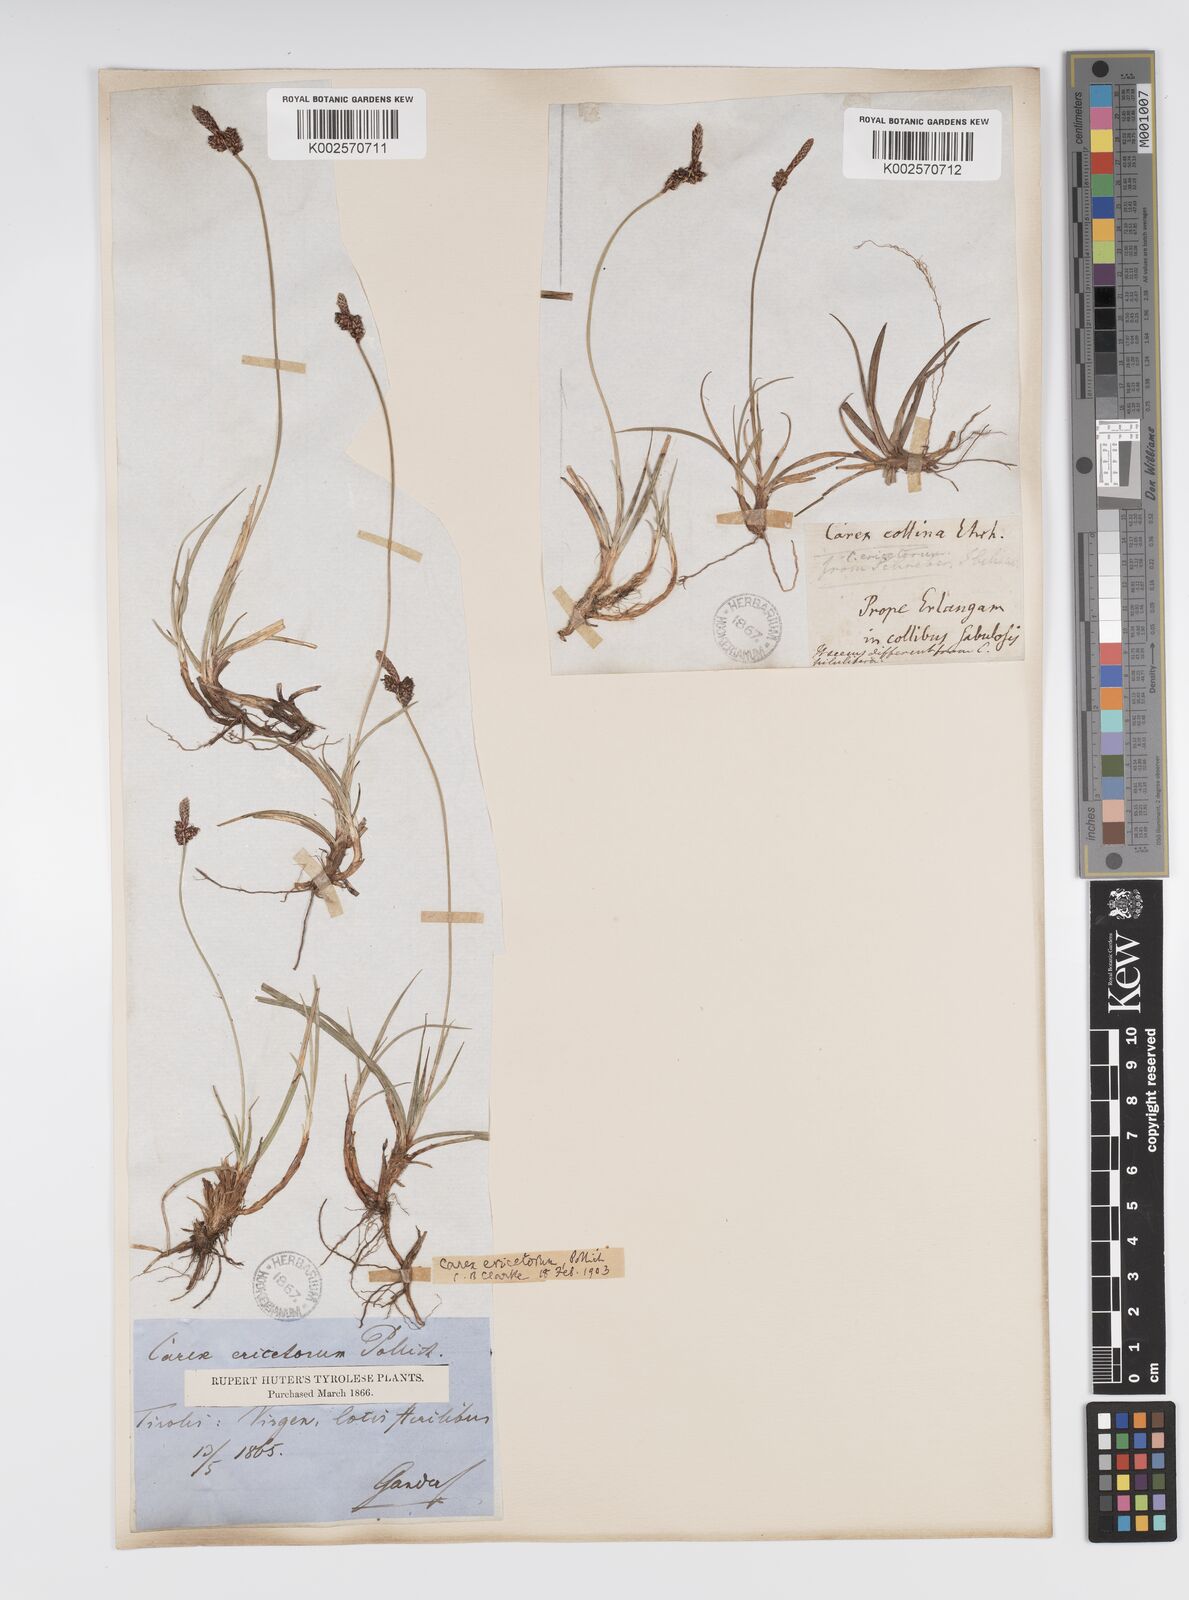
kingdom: Plantae
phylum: Tracheophyta
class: Liliopsida
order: Poales
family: Cyperaceae
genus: Carex
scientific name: Carex ericetorum
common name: Rare spring-sedge
